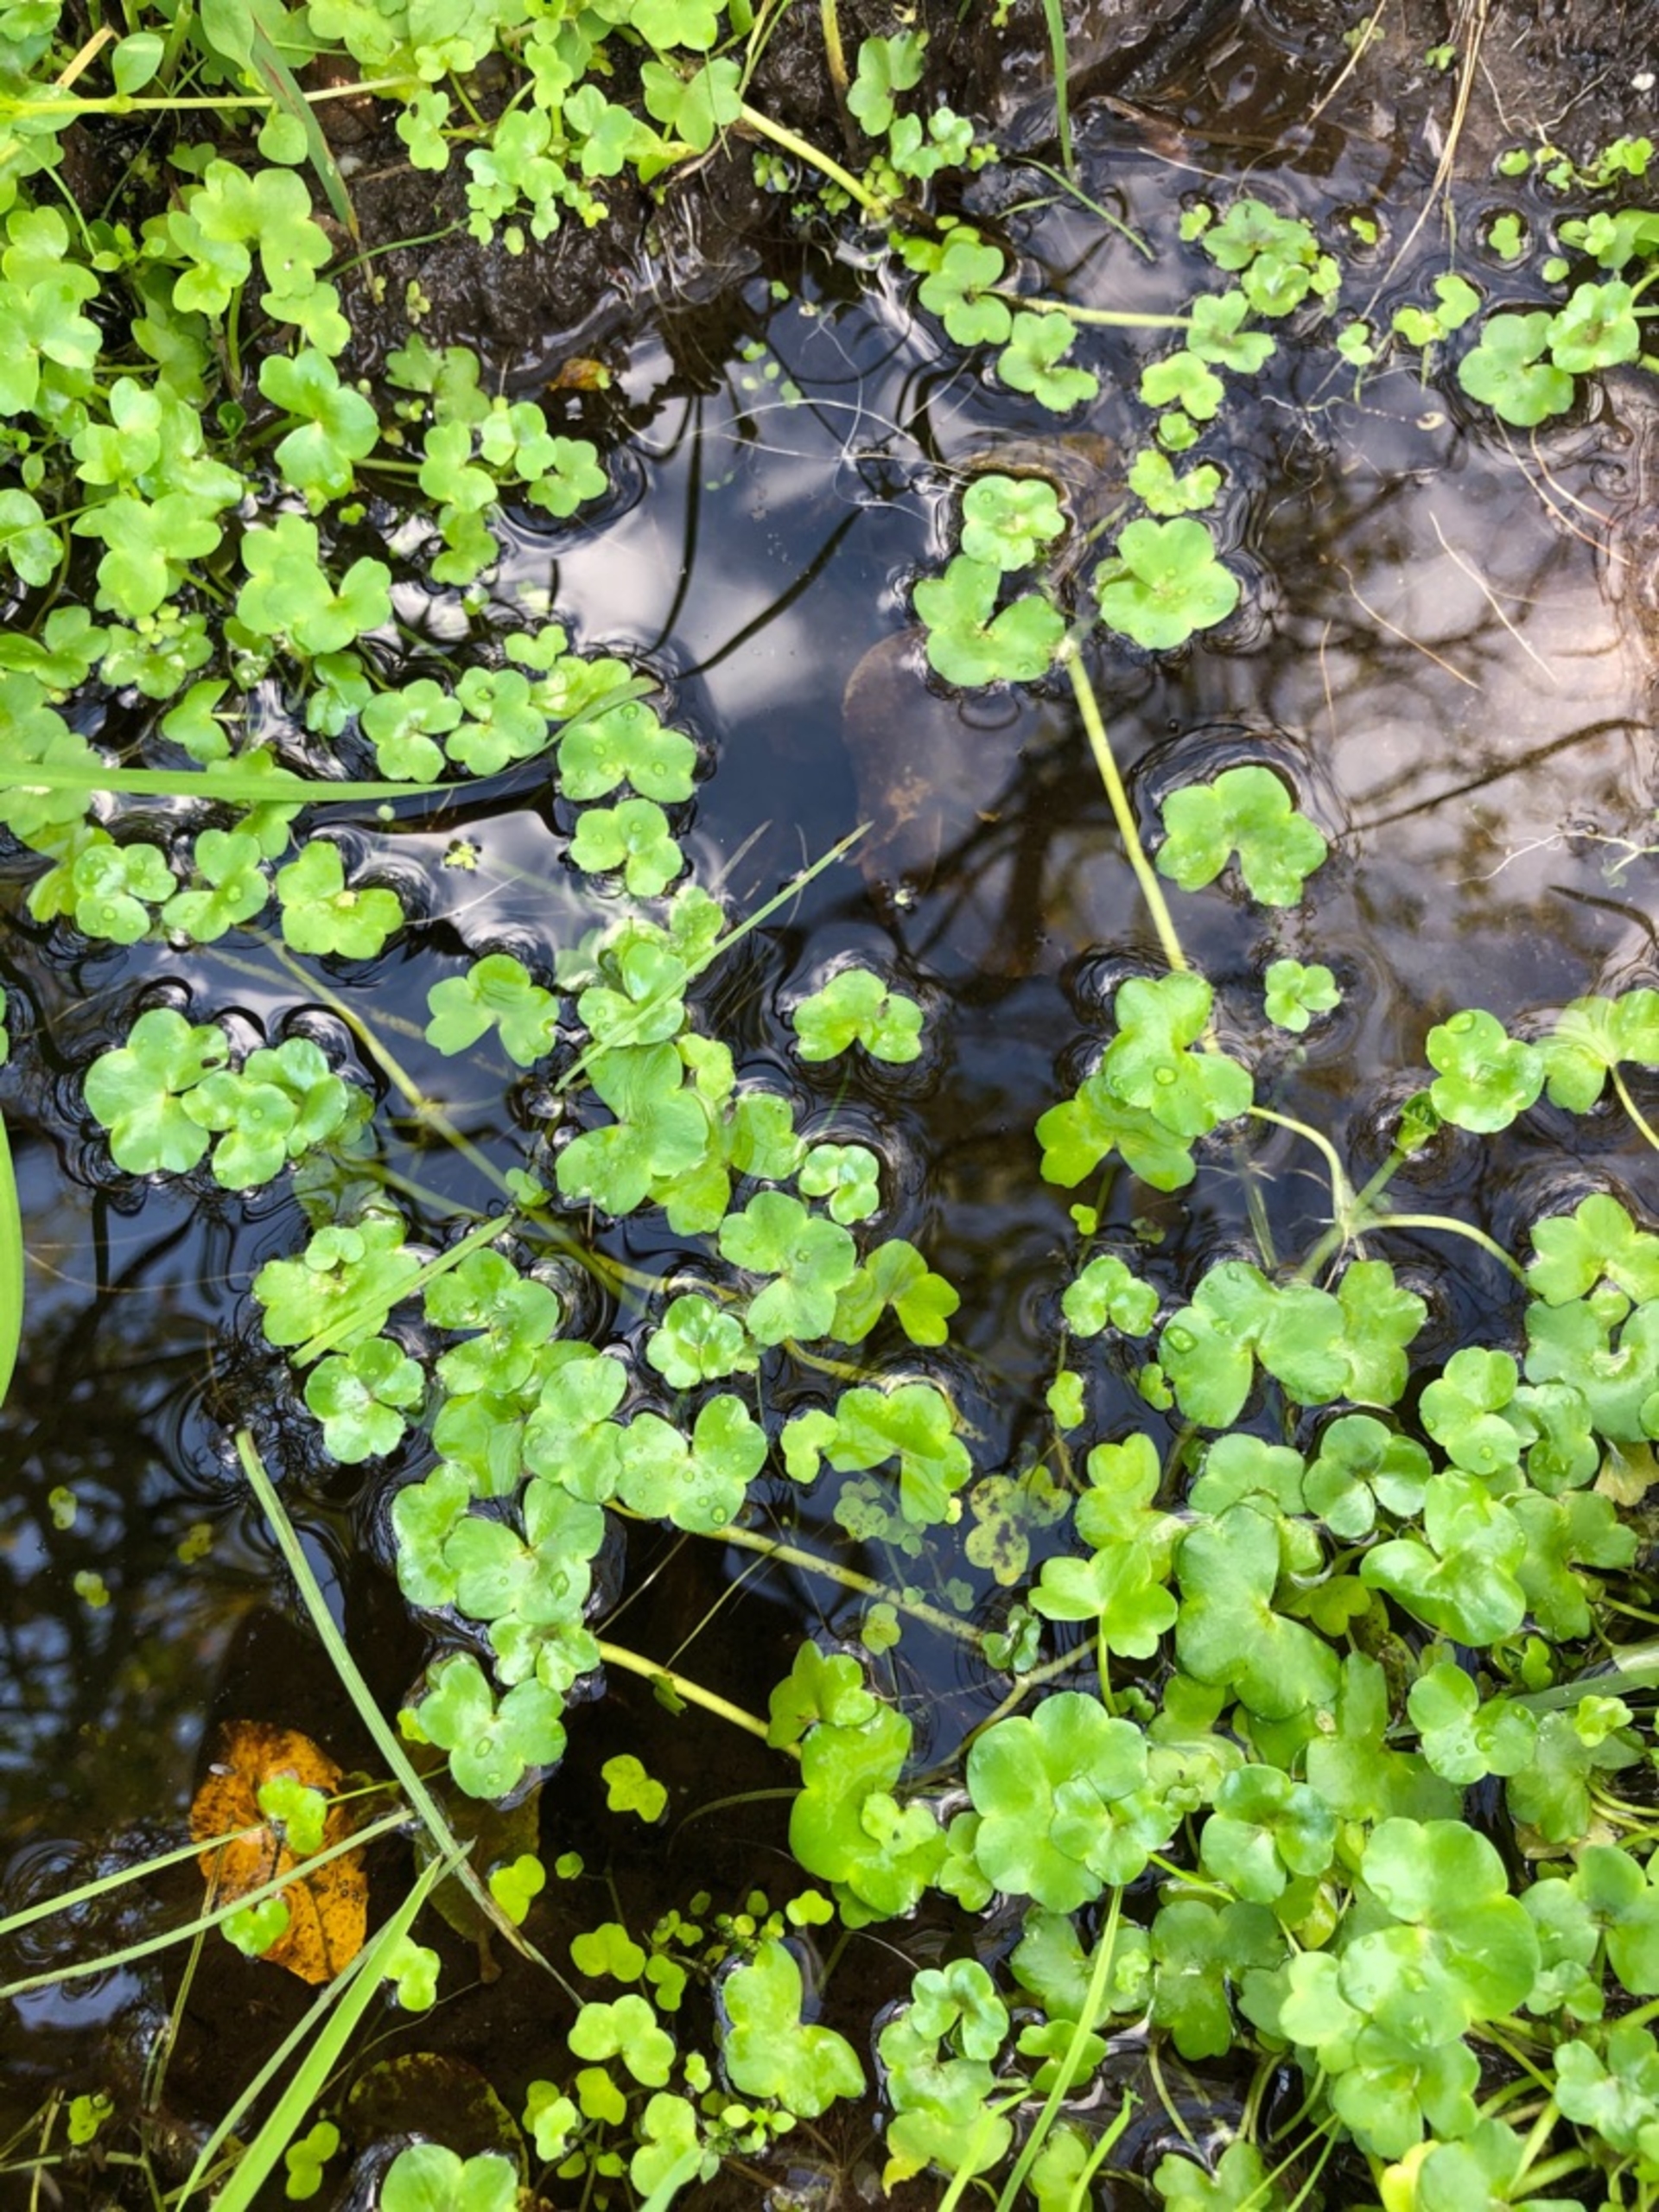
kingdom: Plantae
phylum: Tracheophyta
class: Magnoliopsida
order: Ranunculales
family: Ranunculaceae
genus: Ranunculus
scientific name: Ranunculus hederaceus
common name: Vedbend-vandranunkel
